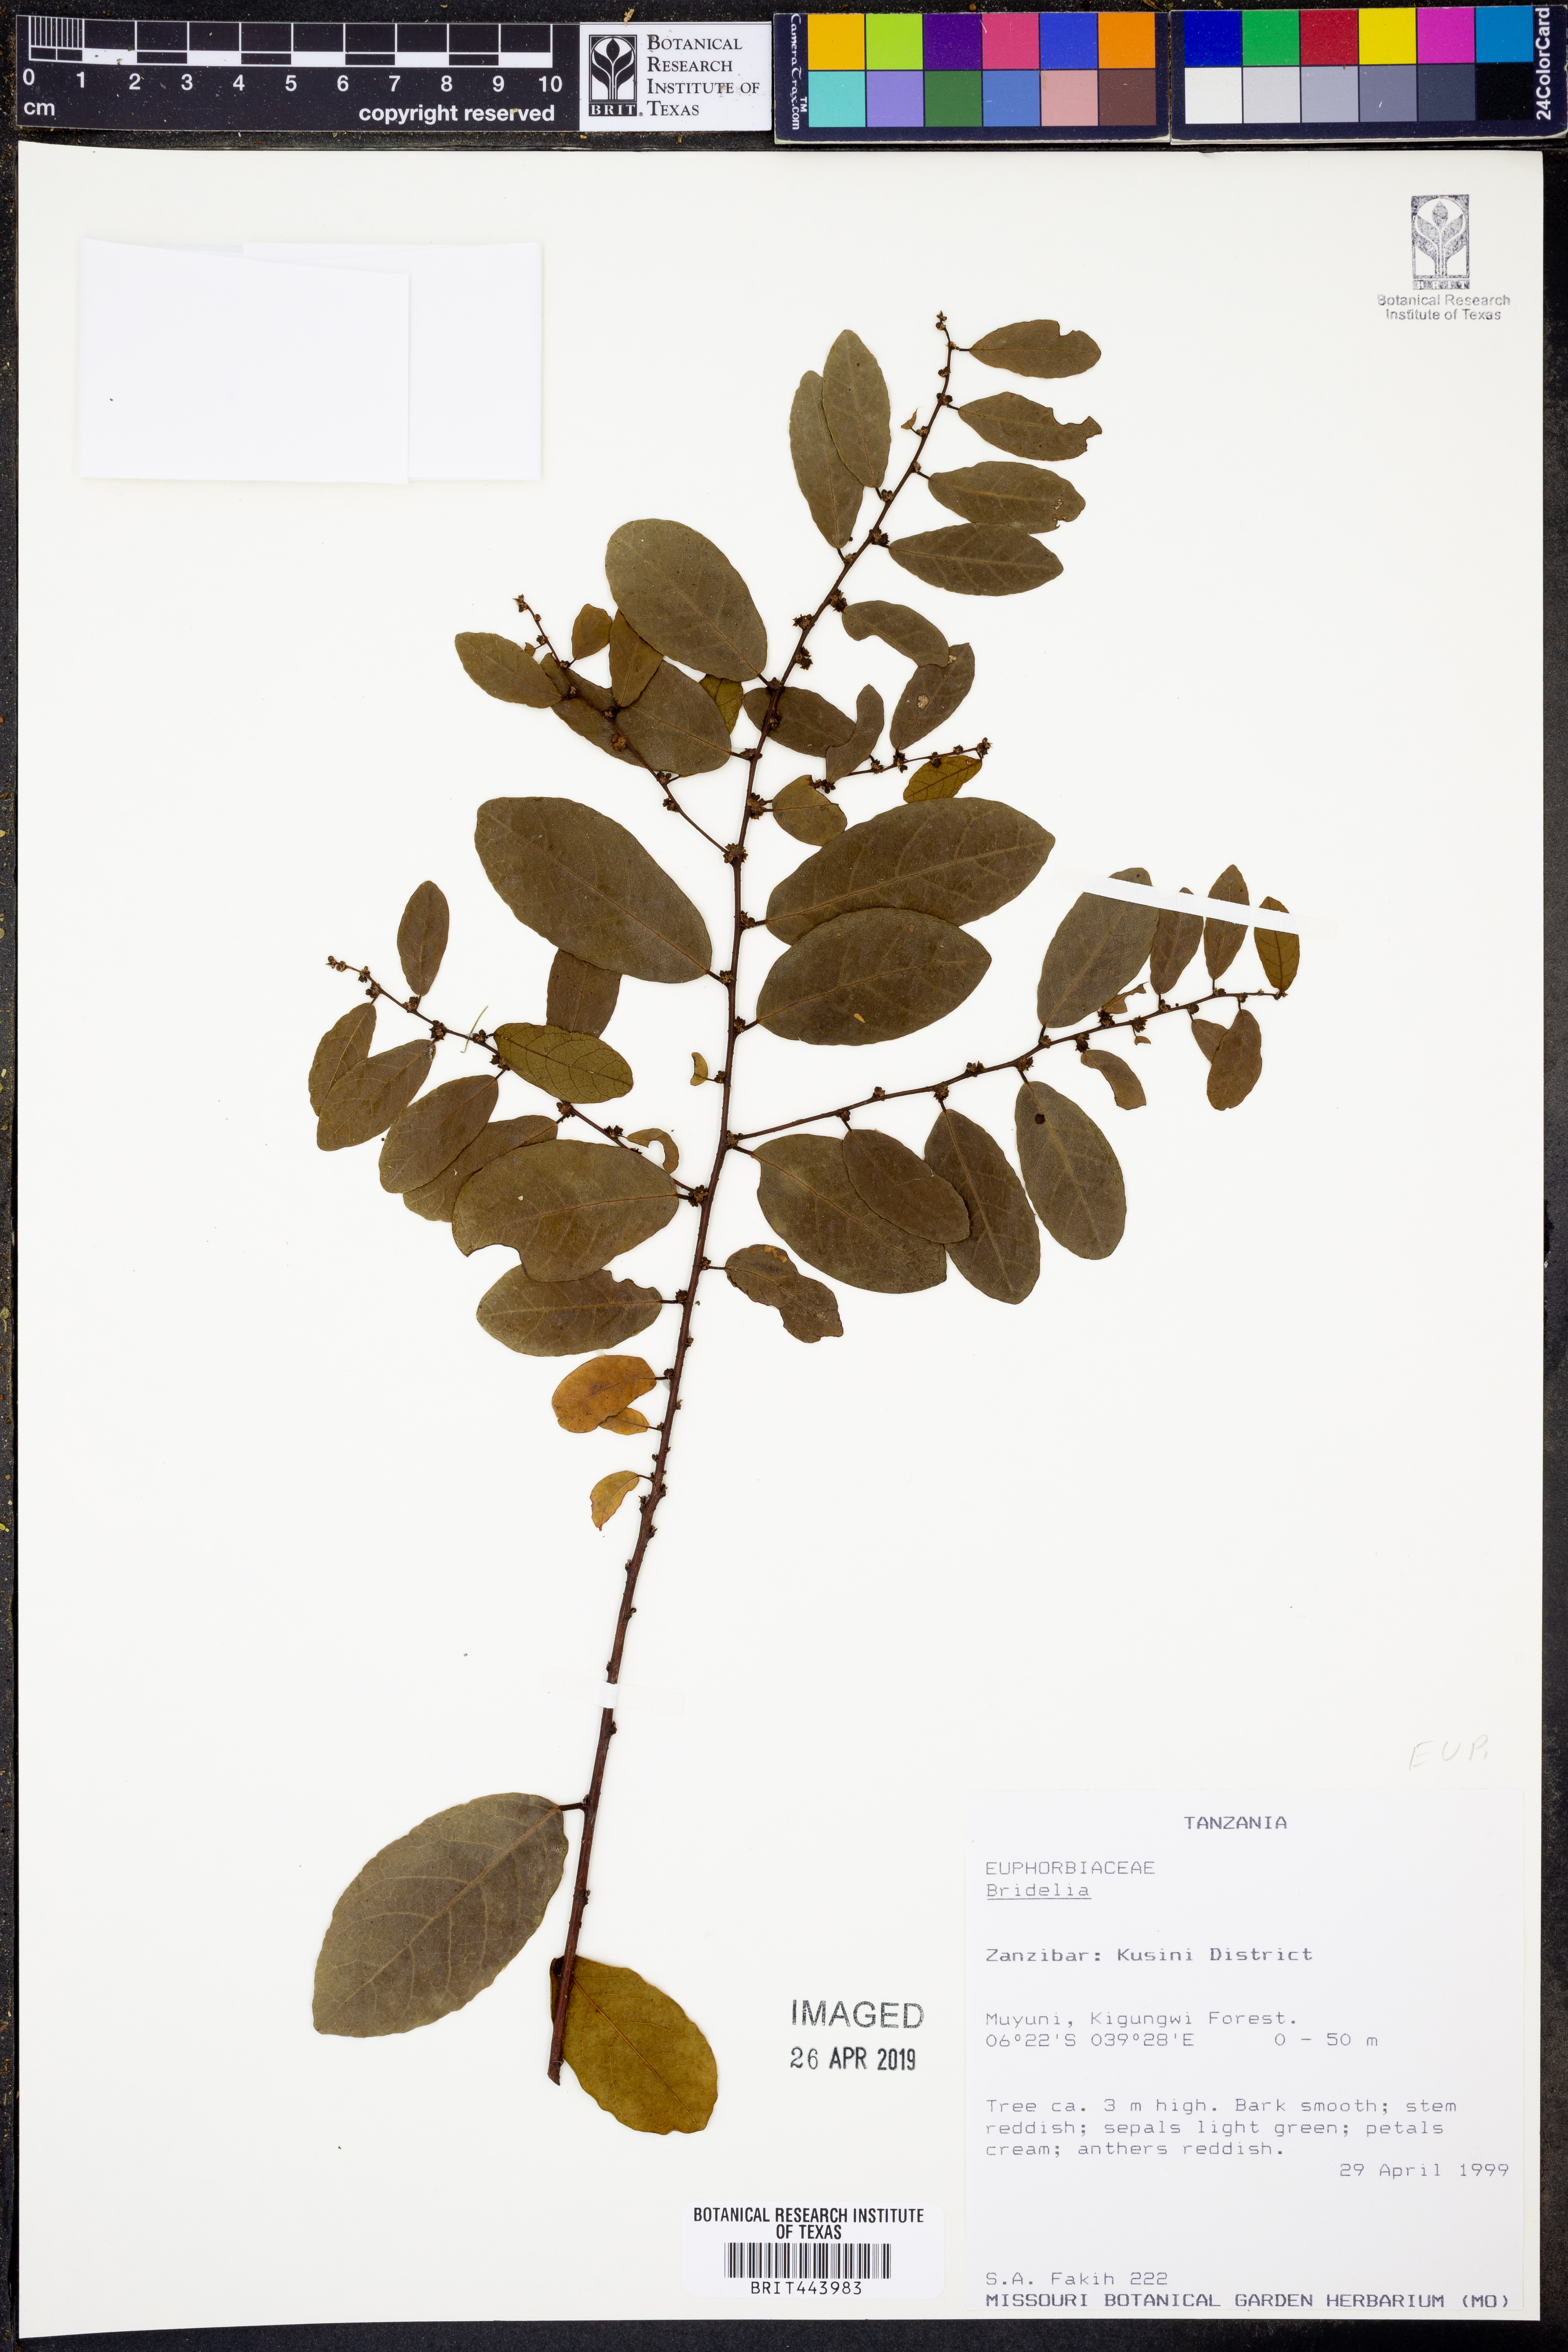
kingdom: Plantae
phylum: Tracheophyta
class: Magnoliopsida
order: Malpighiales
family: Phyllanthaceae
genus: Bridelia
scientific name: Bridelia
